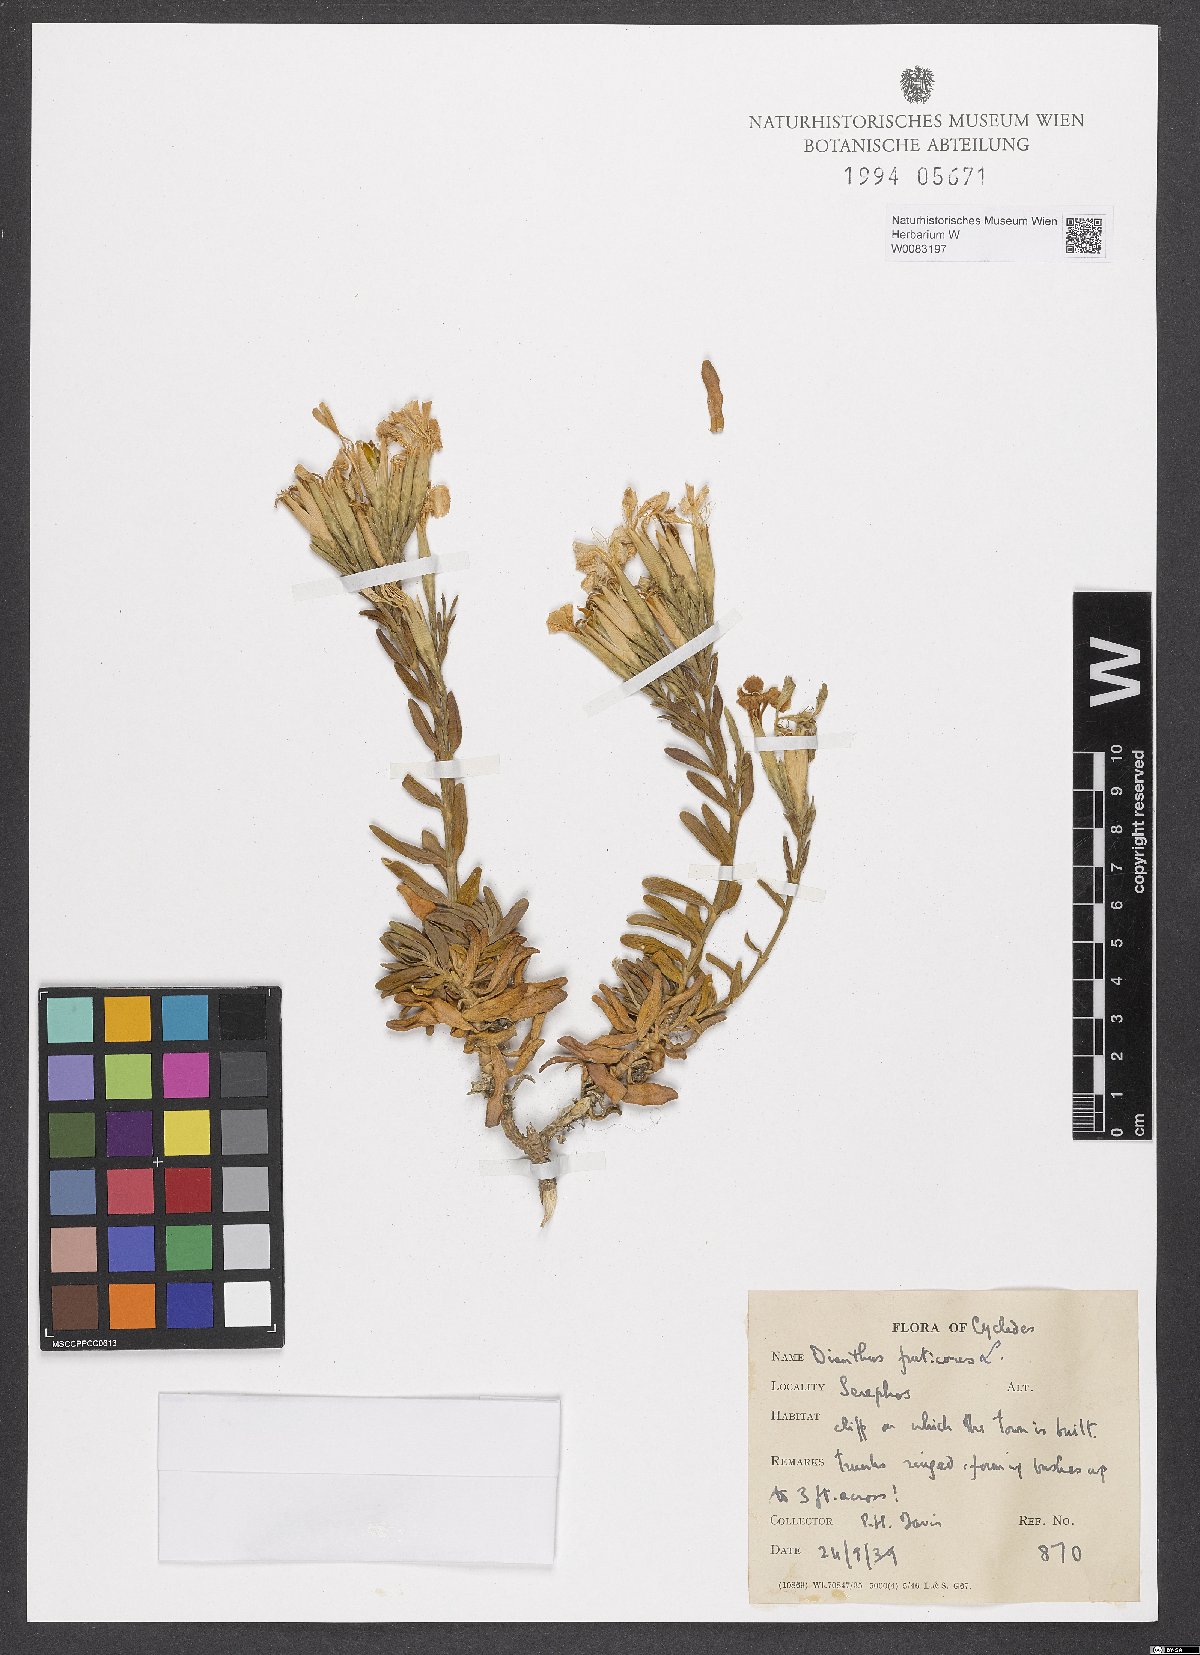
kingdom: Plantae
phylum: Tracheophyta
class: Magnoliopsida
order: Caryophyllales
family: Caryophyllaceae
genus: Dianthus
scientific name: Dianthus fruticosus
